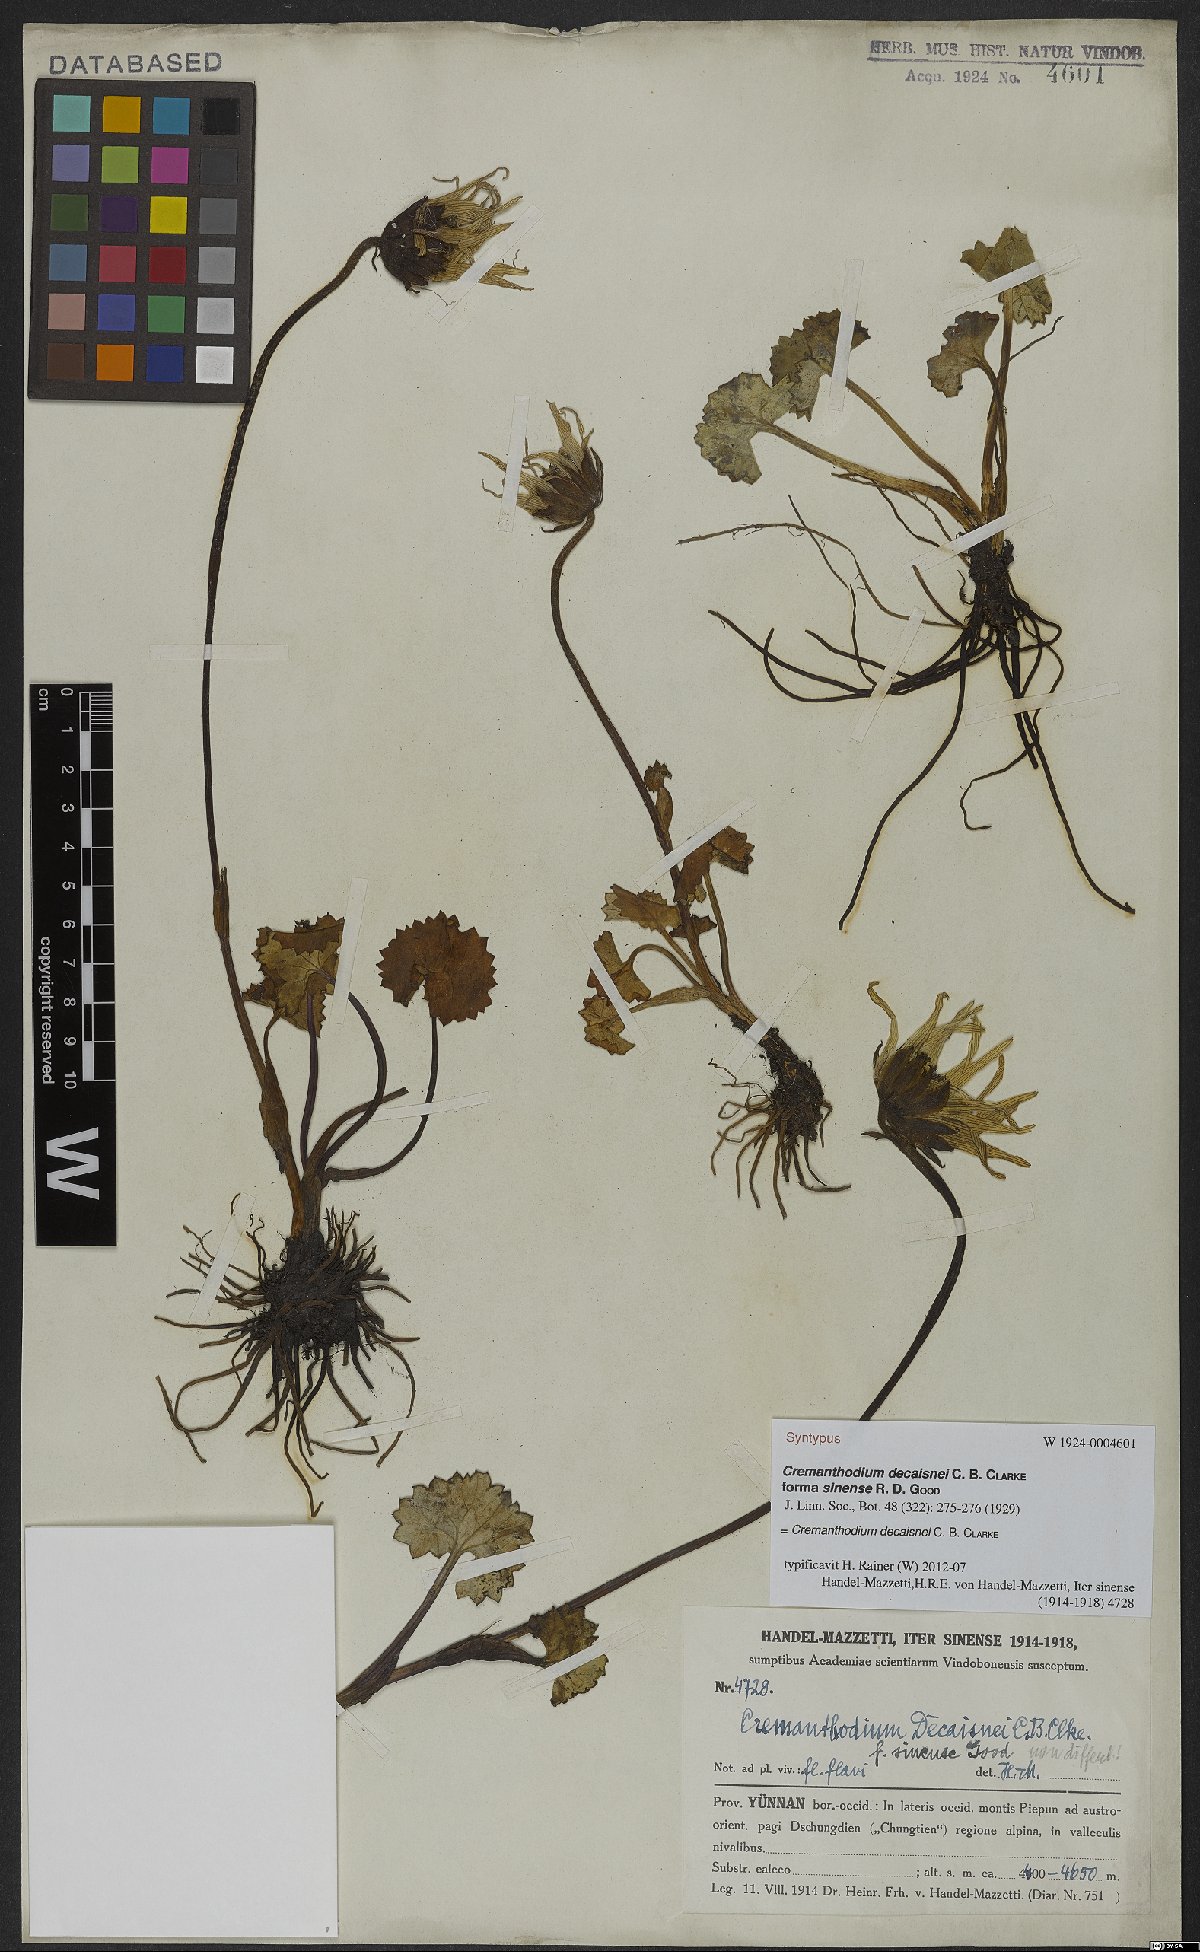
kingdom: Plantae
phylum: Tracheophyta
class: Magnoliopsida
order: Asterales
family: Asteraceae
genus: Cremanthodium
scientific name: Cremanthodium decaisnei
